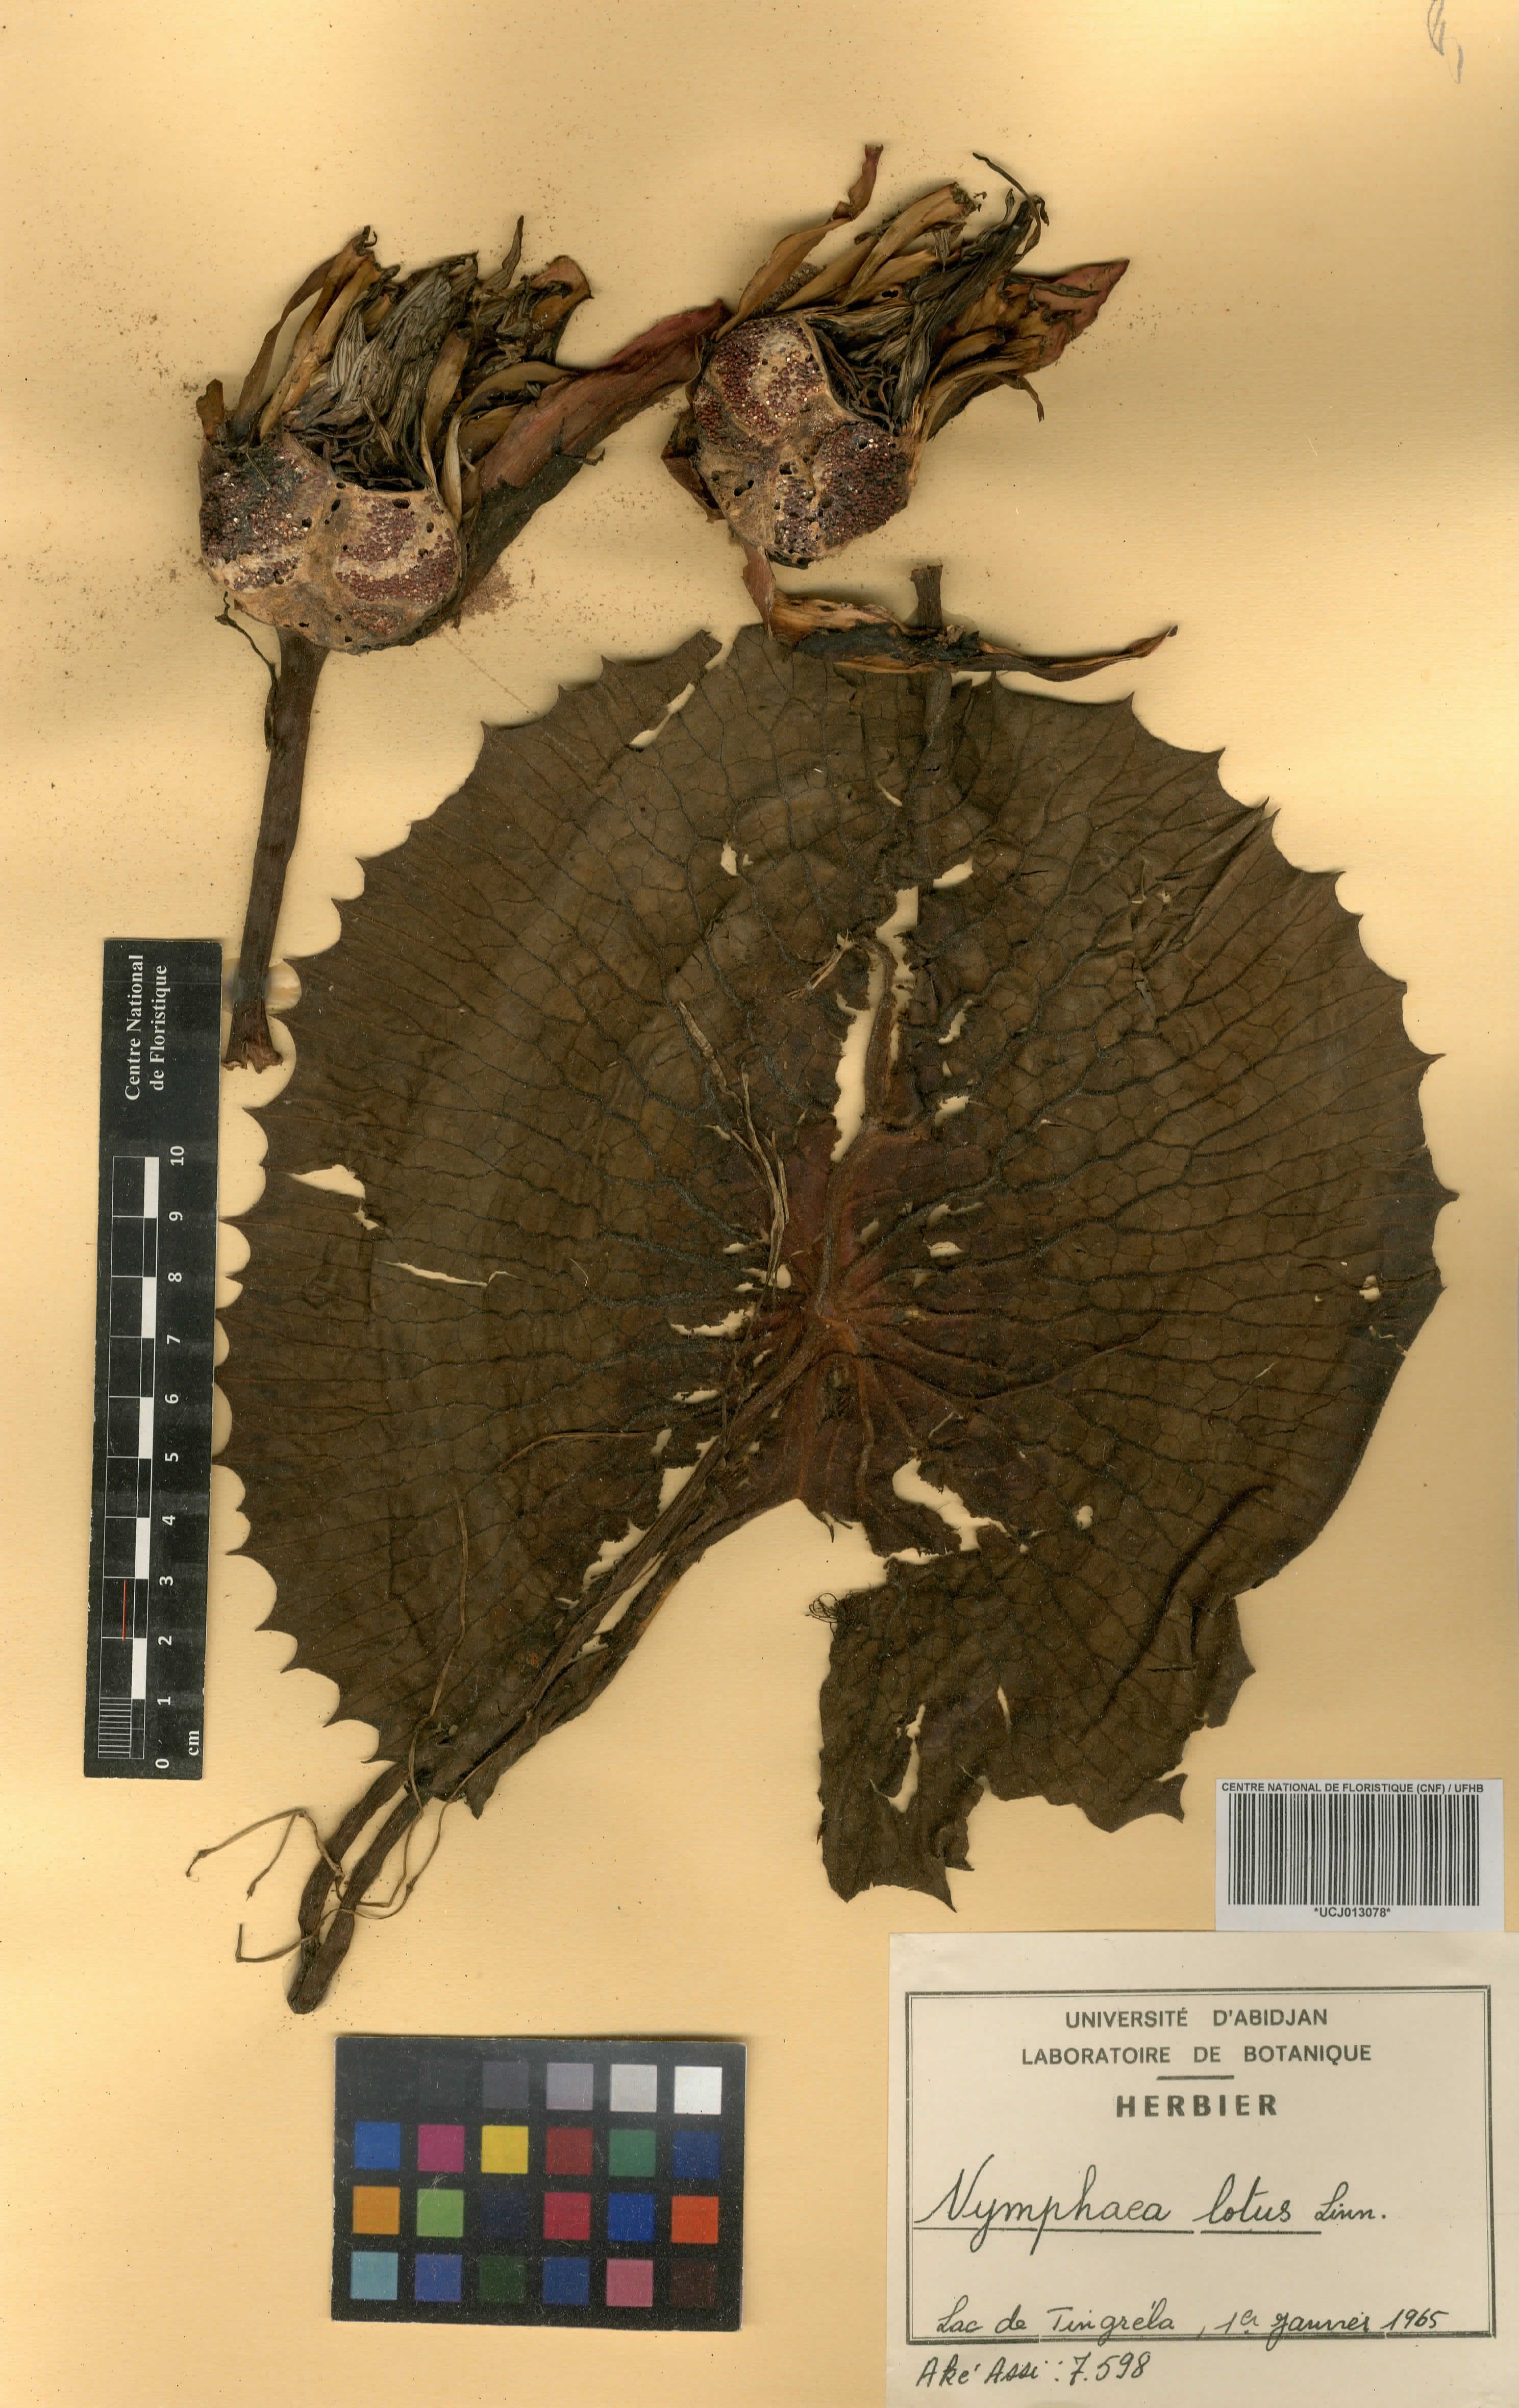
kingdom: Plantae
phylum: Tracheophyta
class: Magnoliopsida
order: Nymphaeales
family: Nymphaeaceae
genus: Nymphaea
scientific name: Nymphaea lotus
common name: White egyptian lotus
